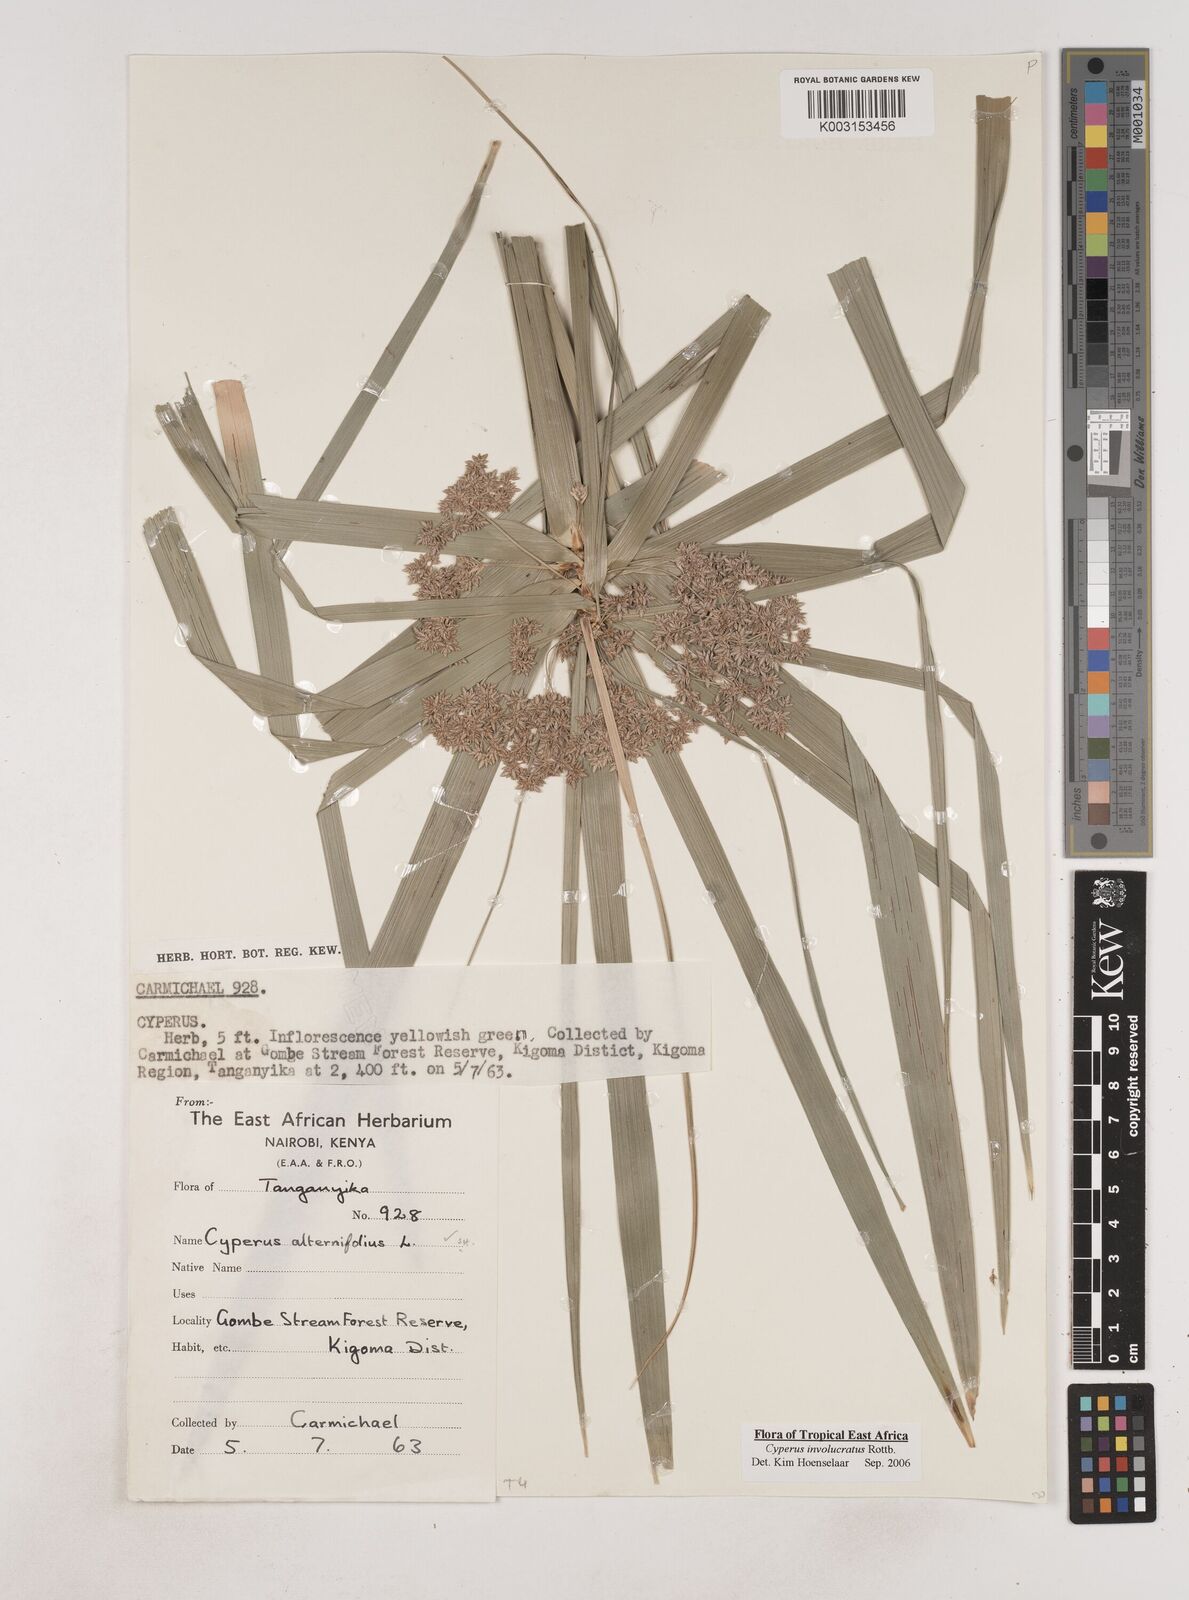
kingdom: Plantae
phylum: Tracheophyta
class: Liliopsida
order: Poales
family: Cyperaceae
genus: Cyperus
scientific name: Cyperus alternifolius
